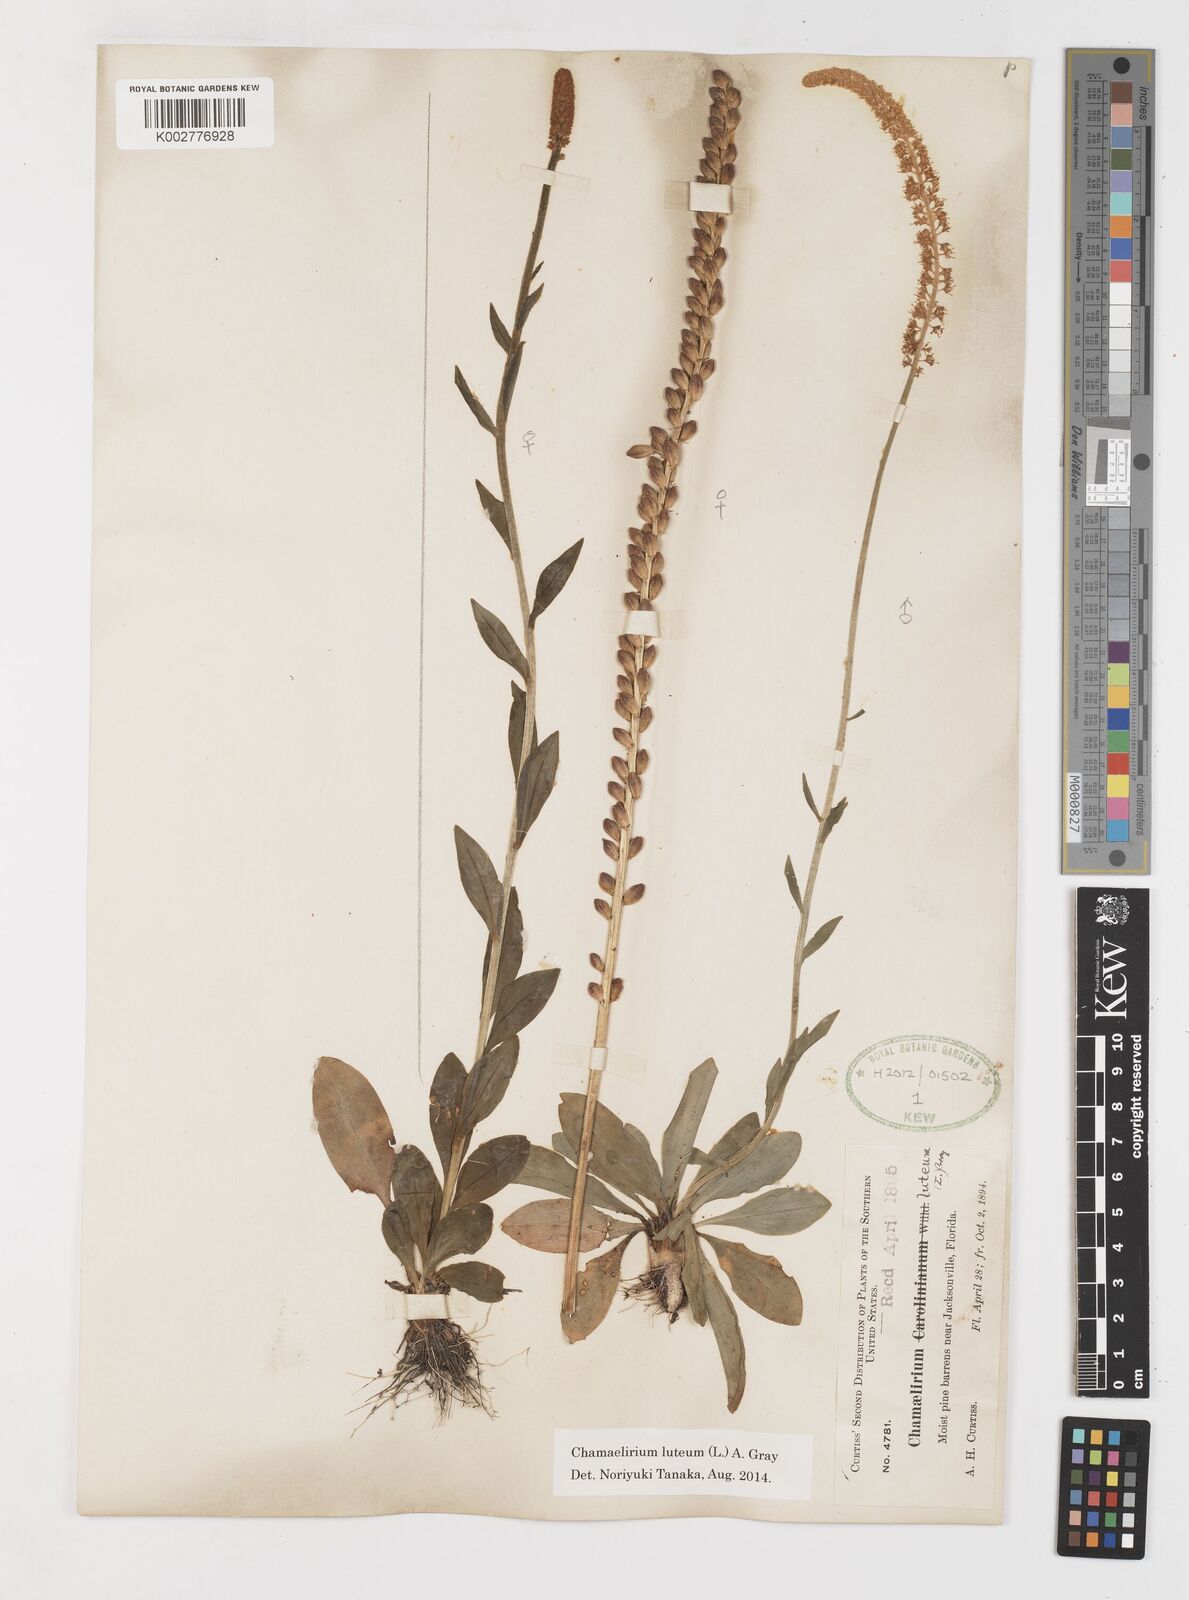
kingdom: Plantae
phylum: Tracheophyta
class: Liliopsida
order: Liliales
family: Melanthiaceae
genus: Chamaelirium
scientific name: Chamaelirium luteum
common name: Fairy-wand
